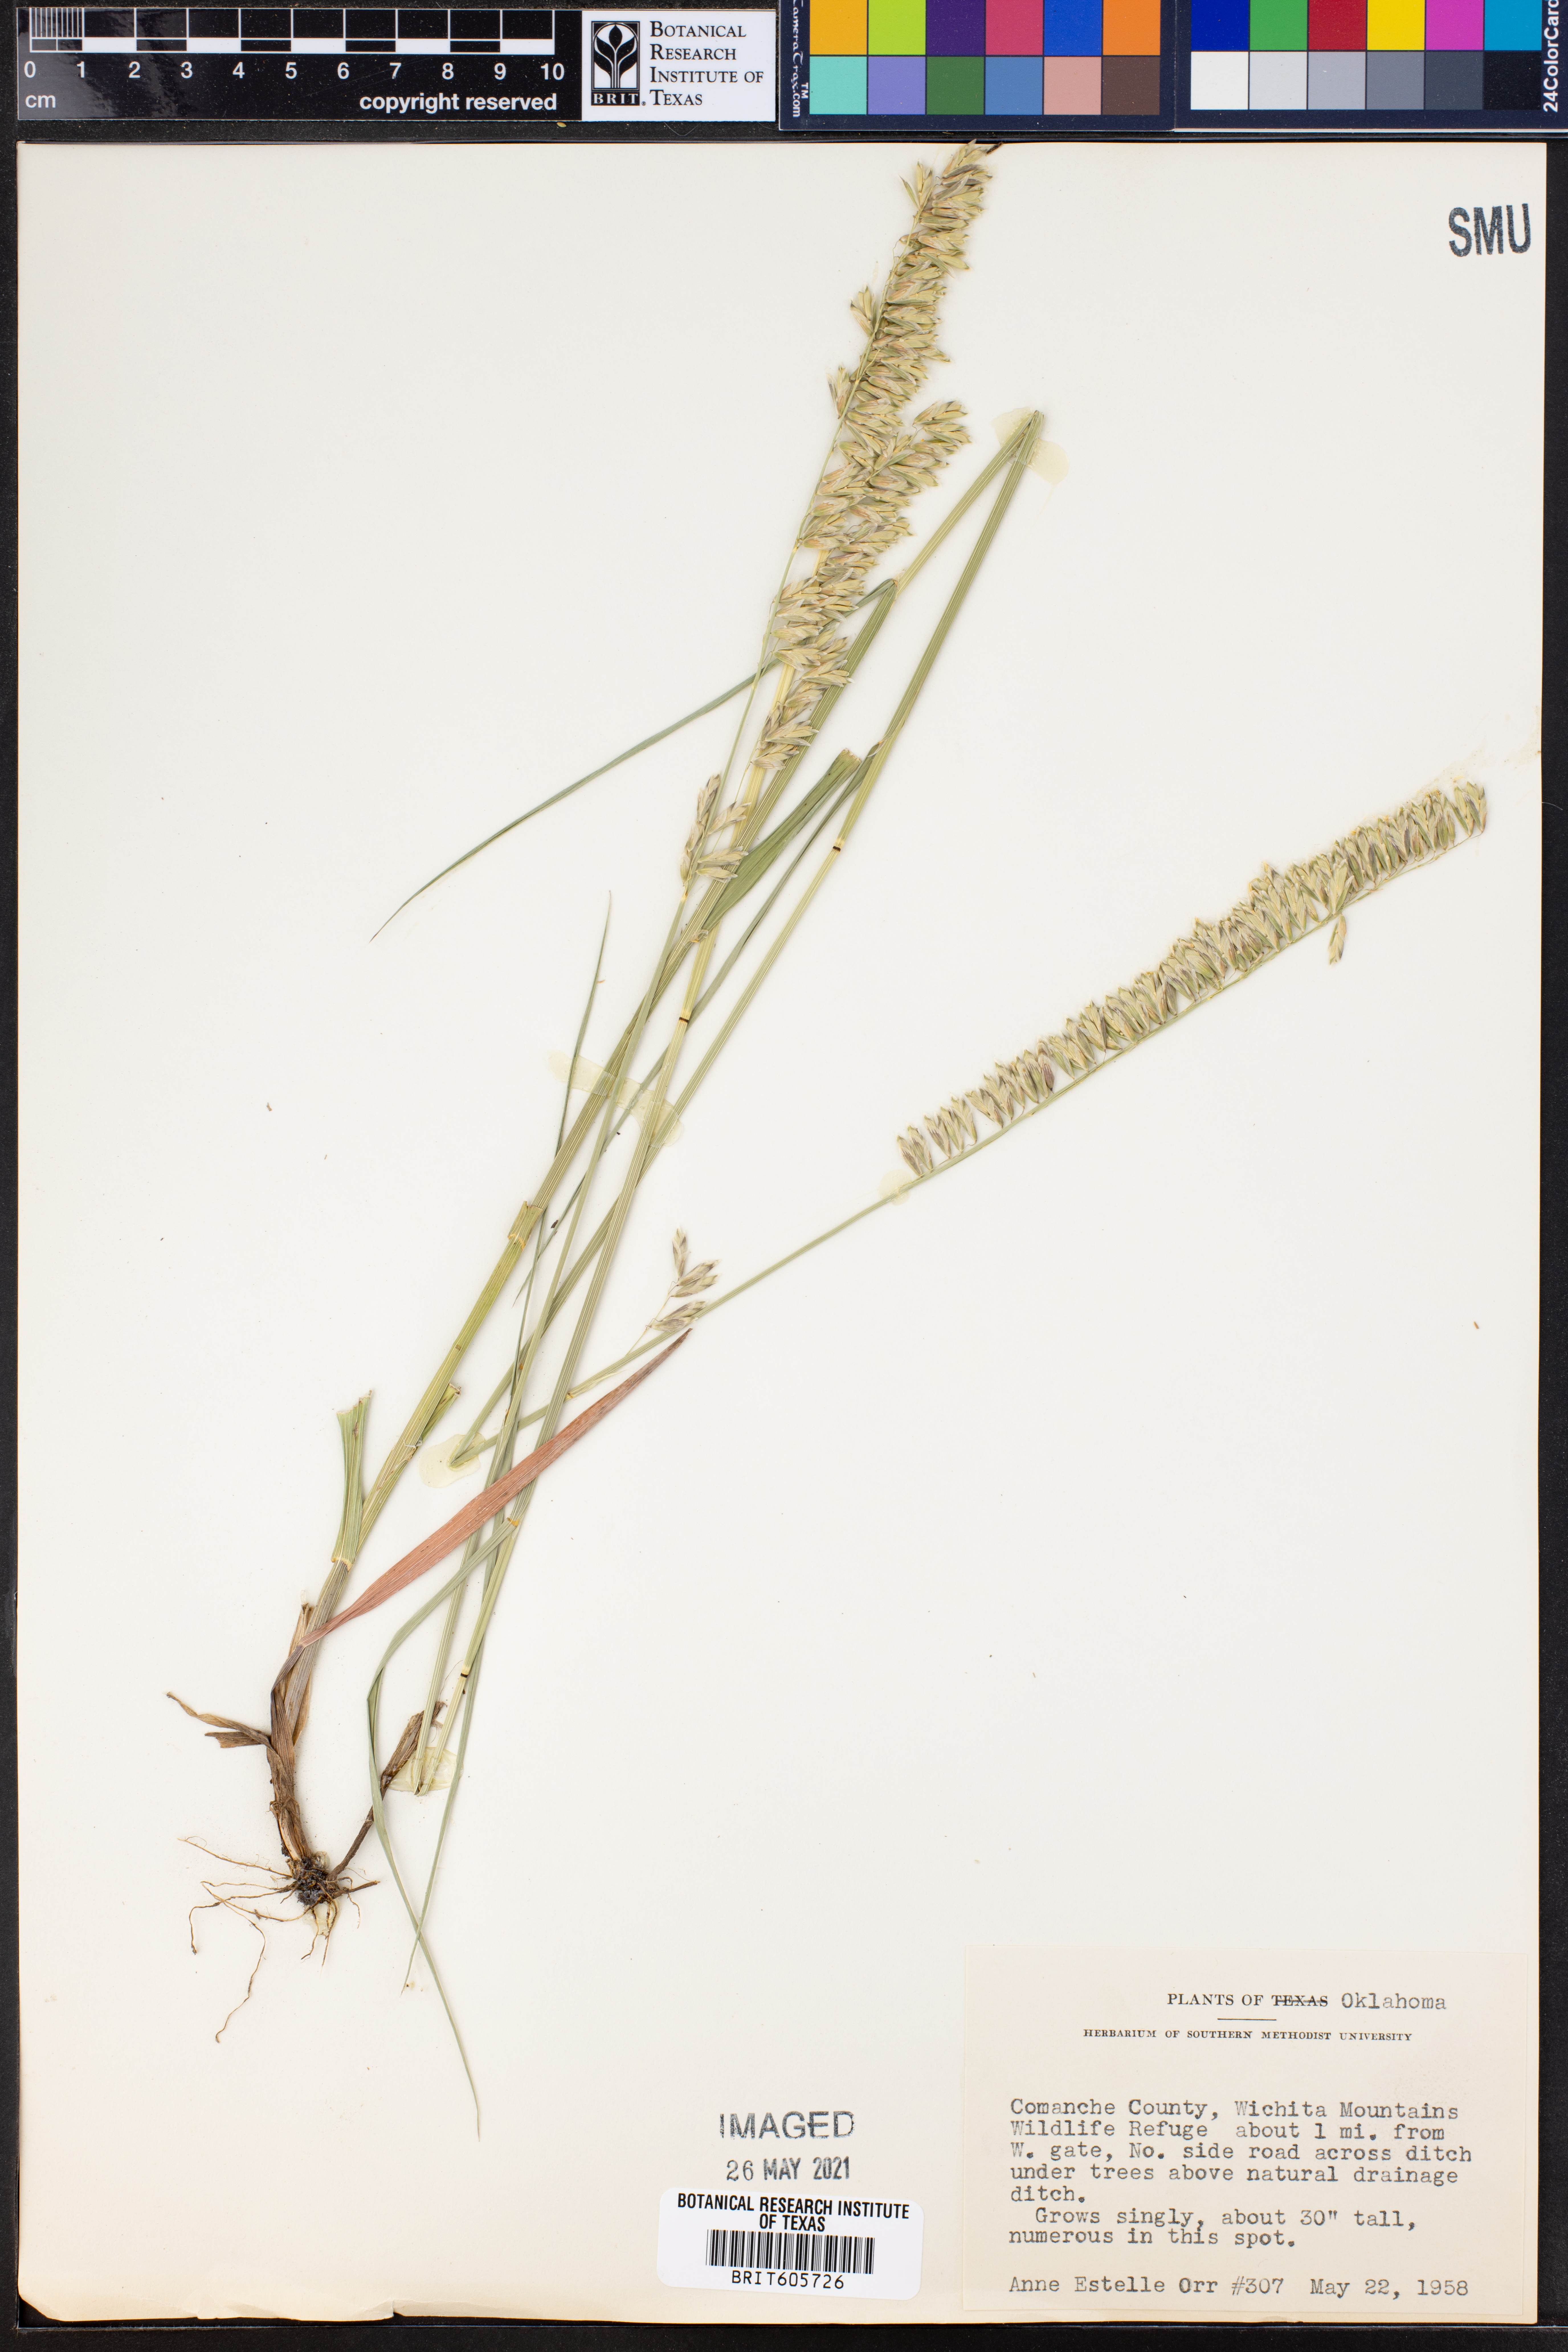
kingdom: Plantae
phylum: Tracheophyta
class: Liliopsida
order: Poales
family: Poaceae
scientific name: Poaceae
